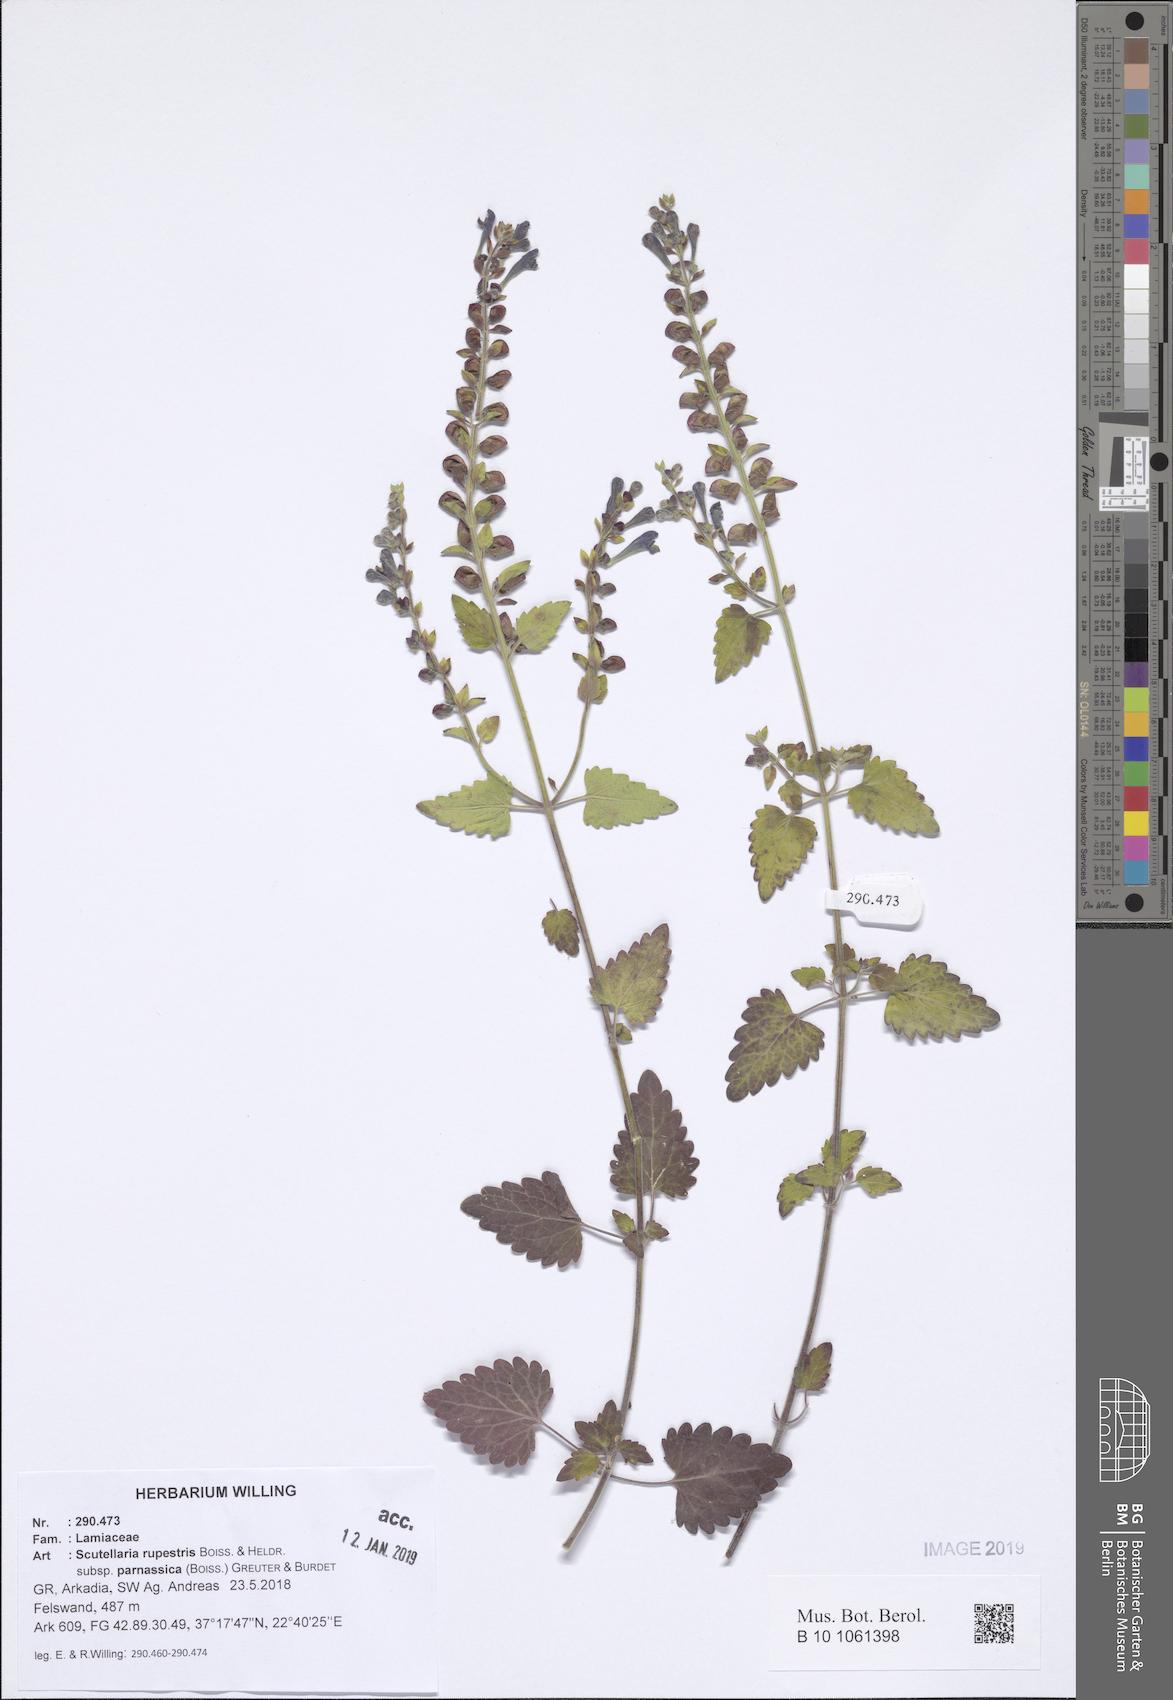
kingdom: Plantae
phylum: Tracheophyta
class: Magnoliopsida
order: Lamiales
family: Lamiaceae
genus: Scutellaria
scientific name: Scutellaria rupestris
